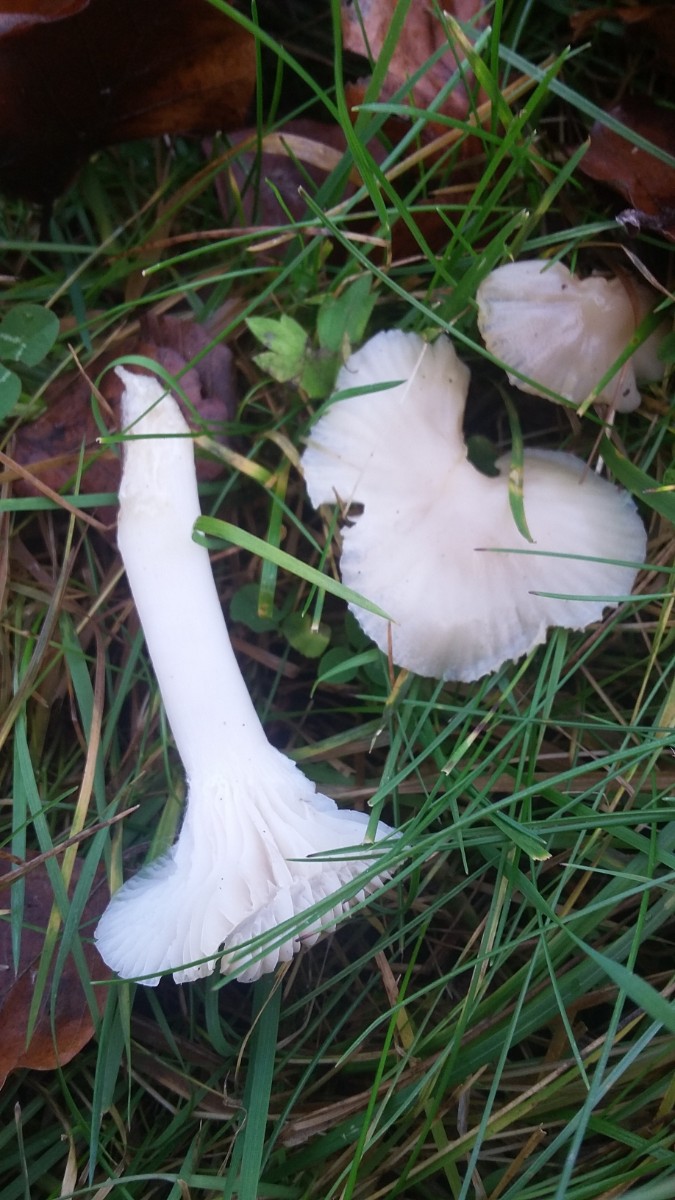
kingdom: Fungi
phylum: Basidiomycota
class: Agaricomycetes
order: Agaricales
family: Hygrophoraceae
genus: Cuphophyllus
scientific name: Cuphophyllus
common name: vokshat
